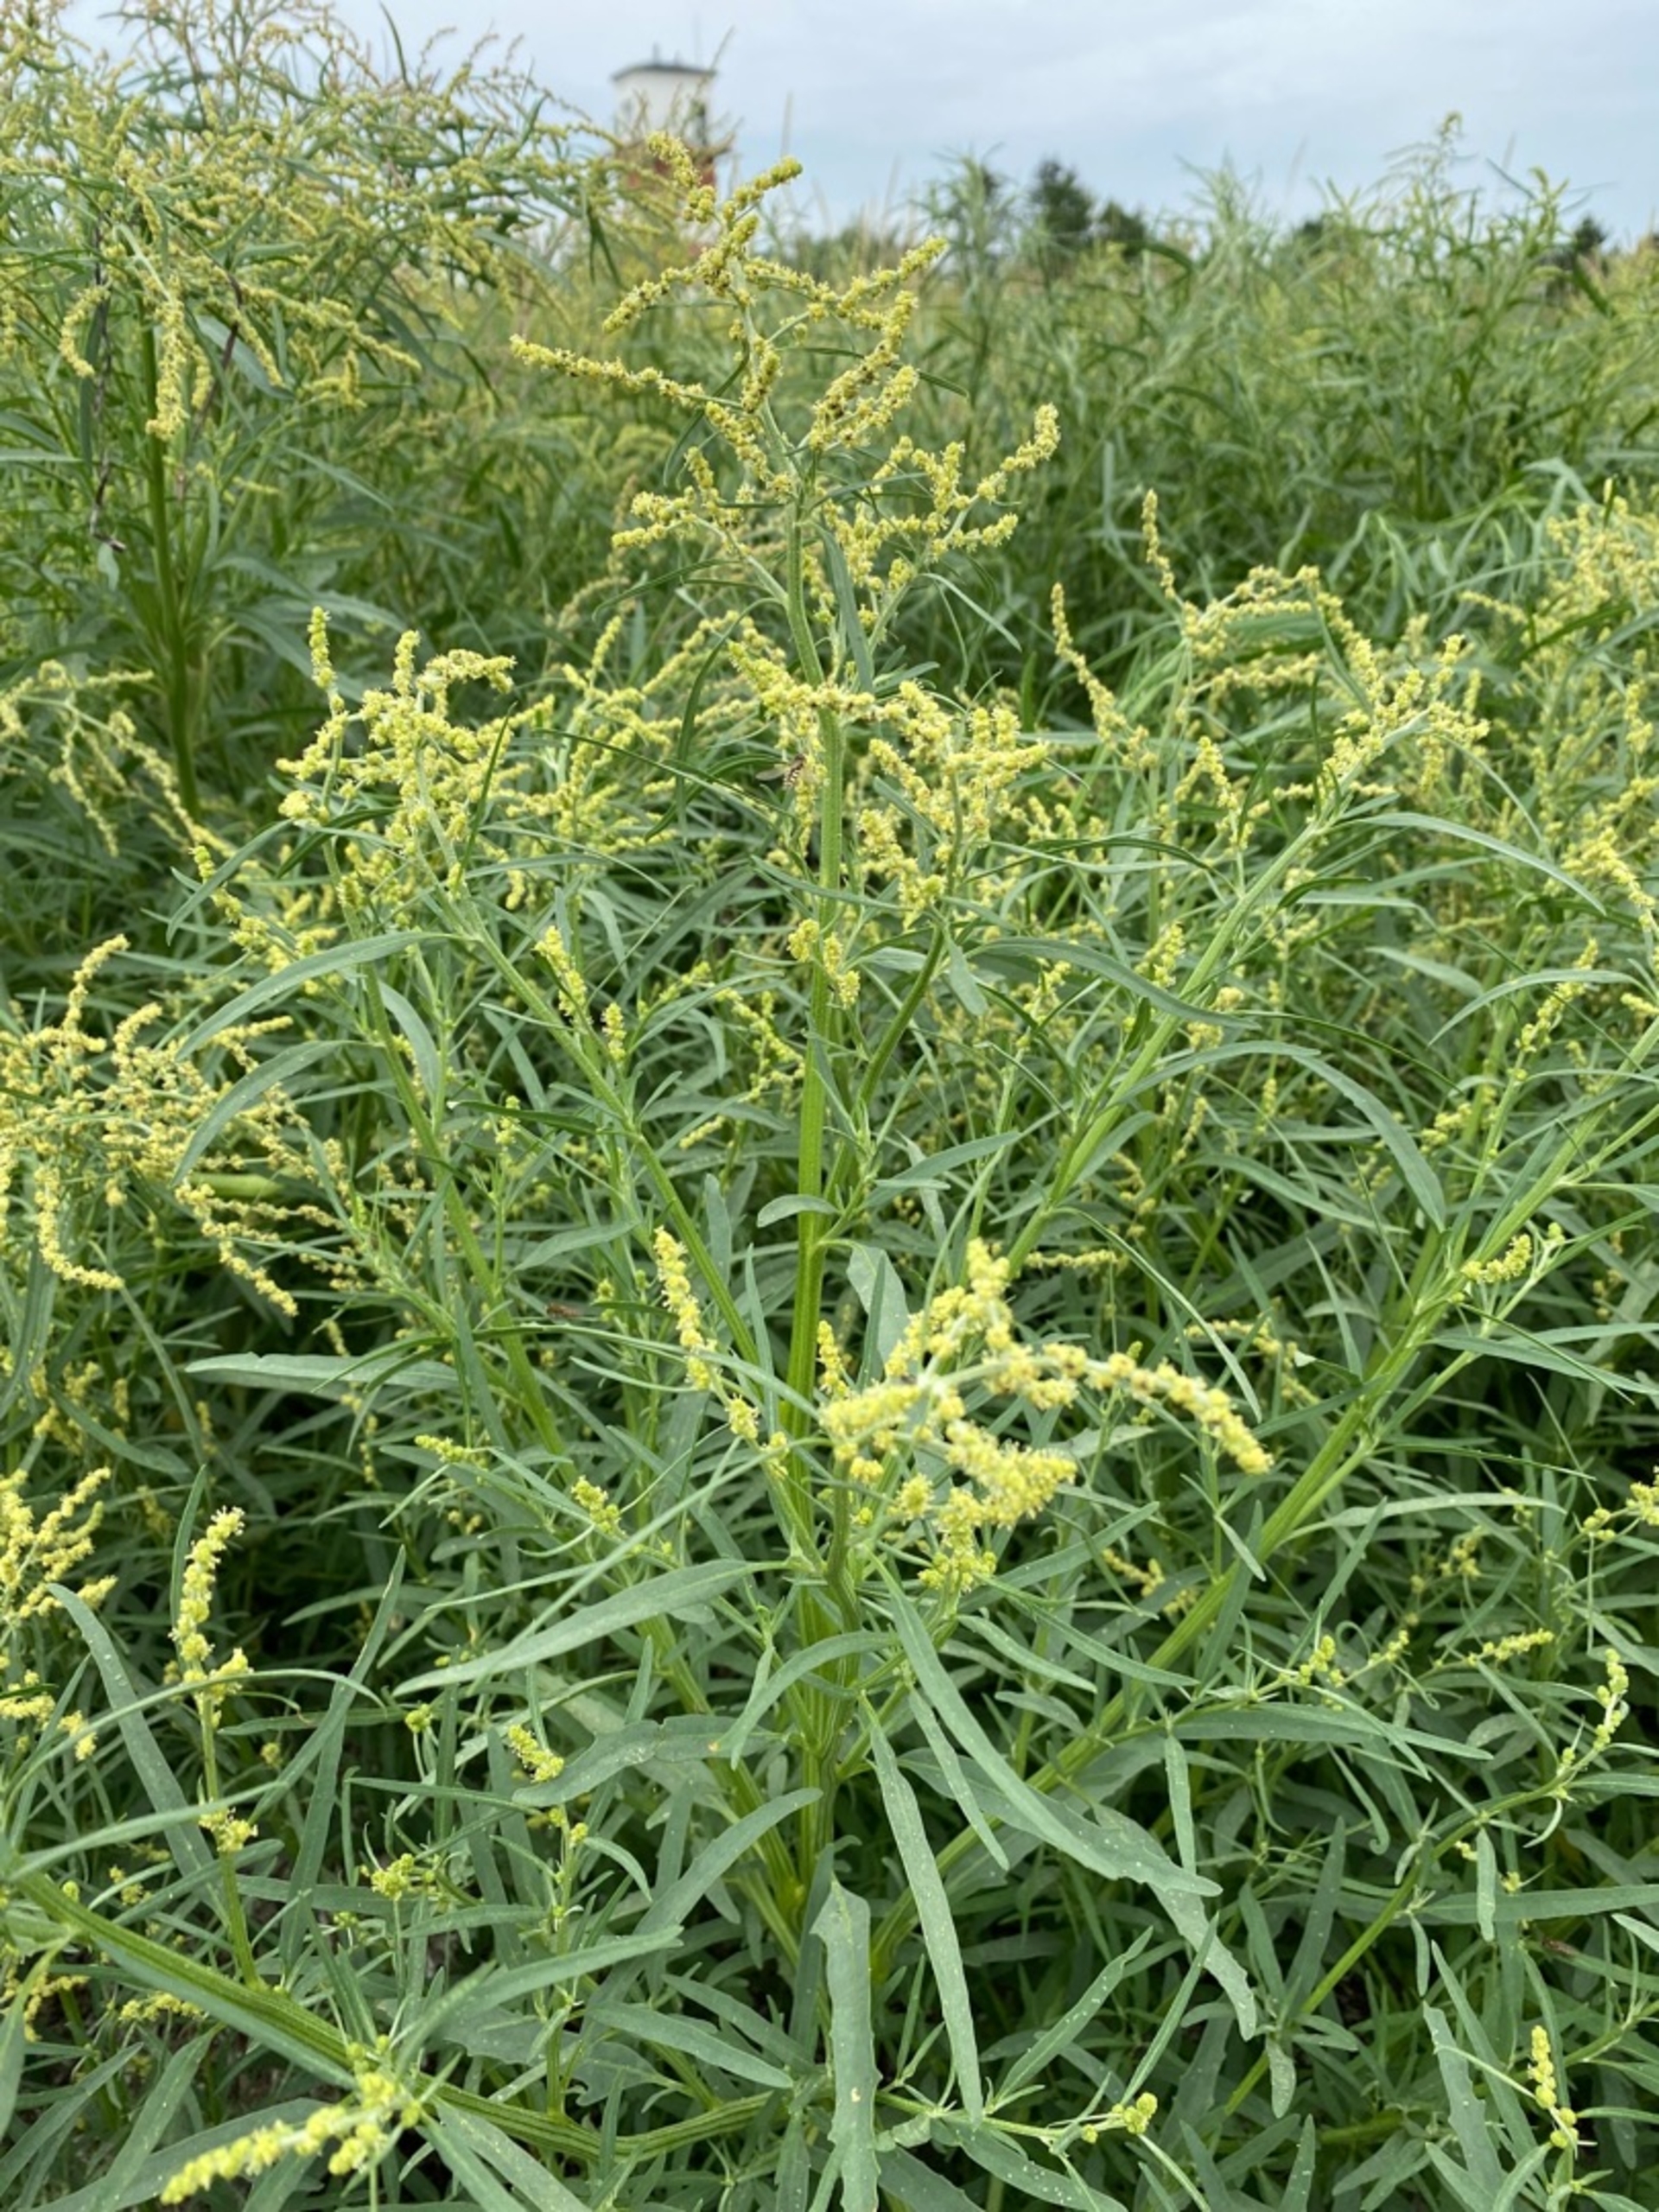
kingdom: Plantae
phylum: Tracheophyta
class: Magnoliopsida
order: Caryophyllales
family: Amaranthaceae
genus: Atriplex
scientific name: Atriplex littoralis
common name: Strand-mælde
